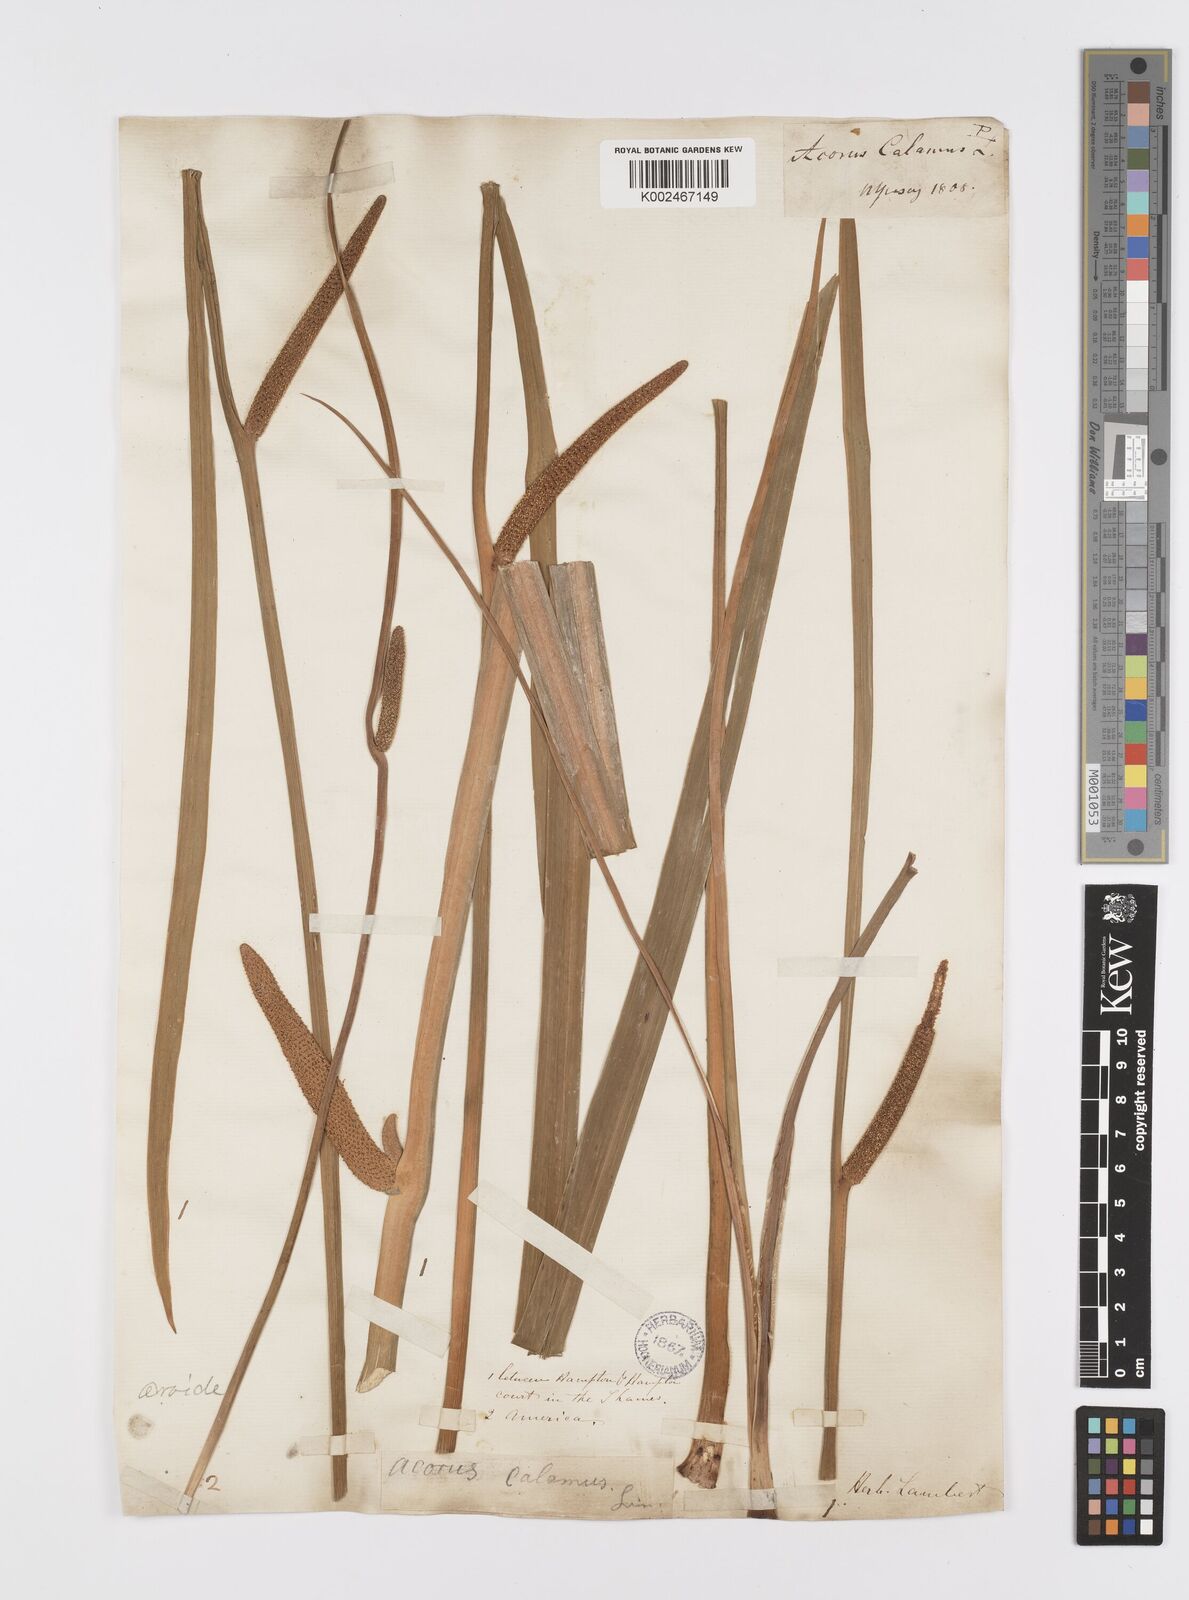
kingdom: Plantae
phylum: Tracheophyta
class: Liliopsida
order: Acorales
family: Acoraceae
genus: Acorus
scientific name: Acorus calamus
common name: Sweet-flag
